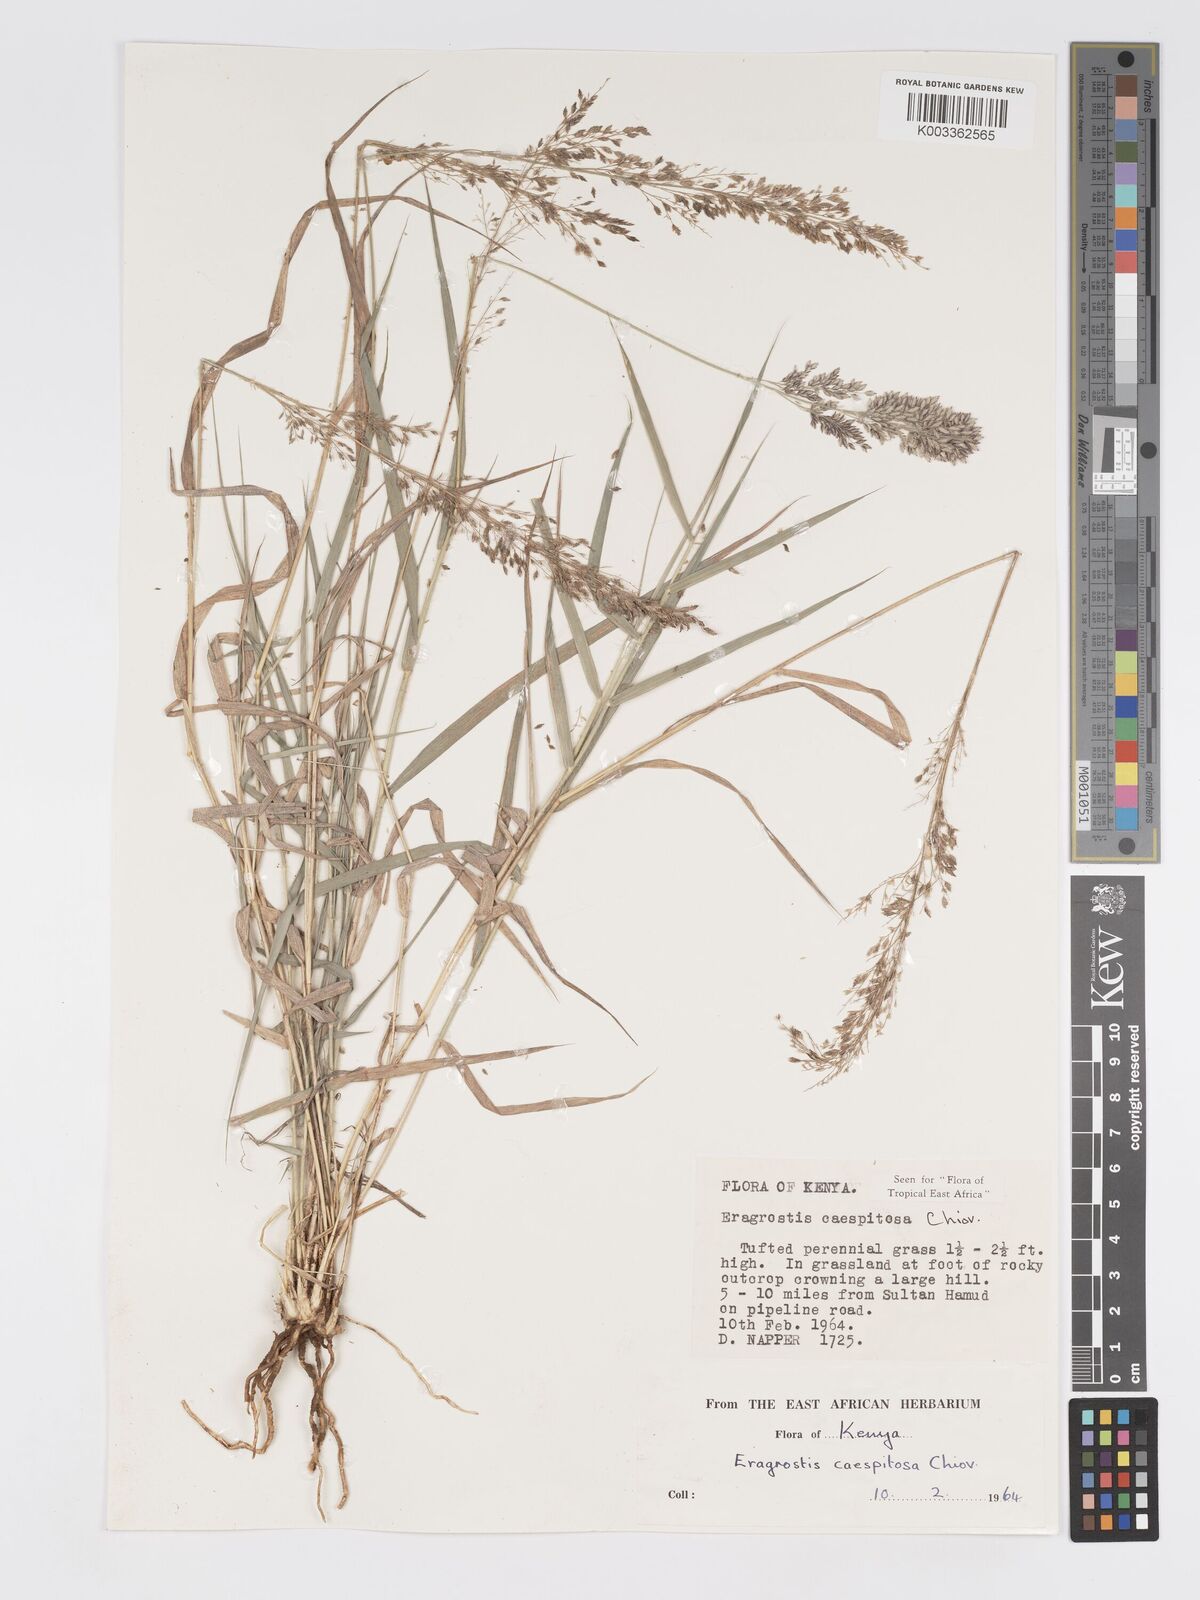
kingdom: Plantae
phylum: Tracheophyta
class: Liliopsida
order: Poales
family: Poaceae
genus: Eragrostis
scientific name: Eragrostis caespitosa
